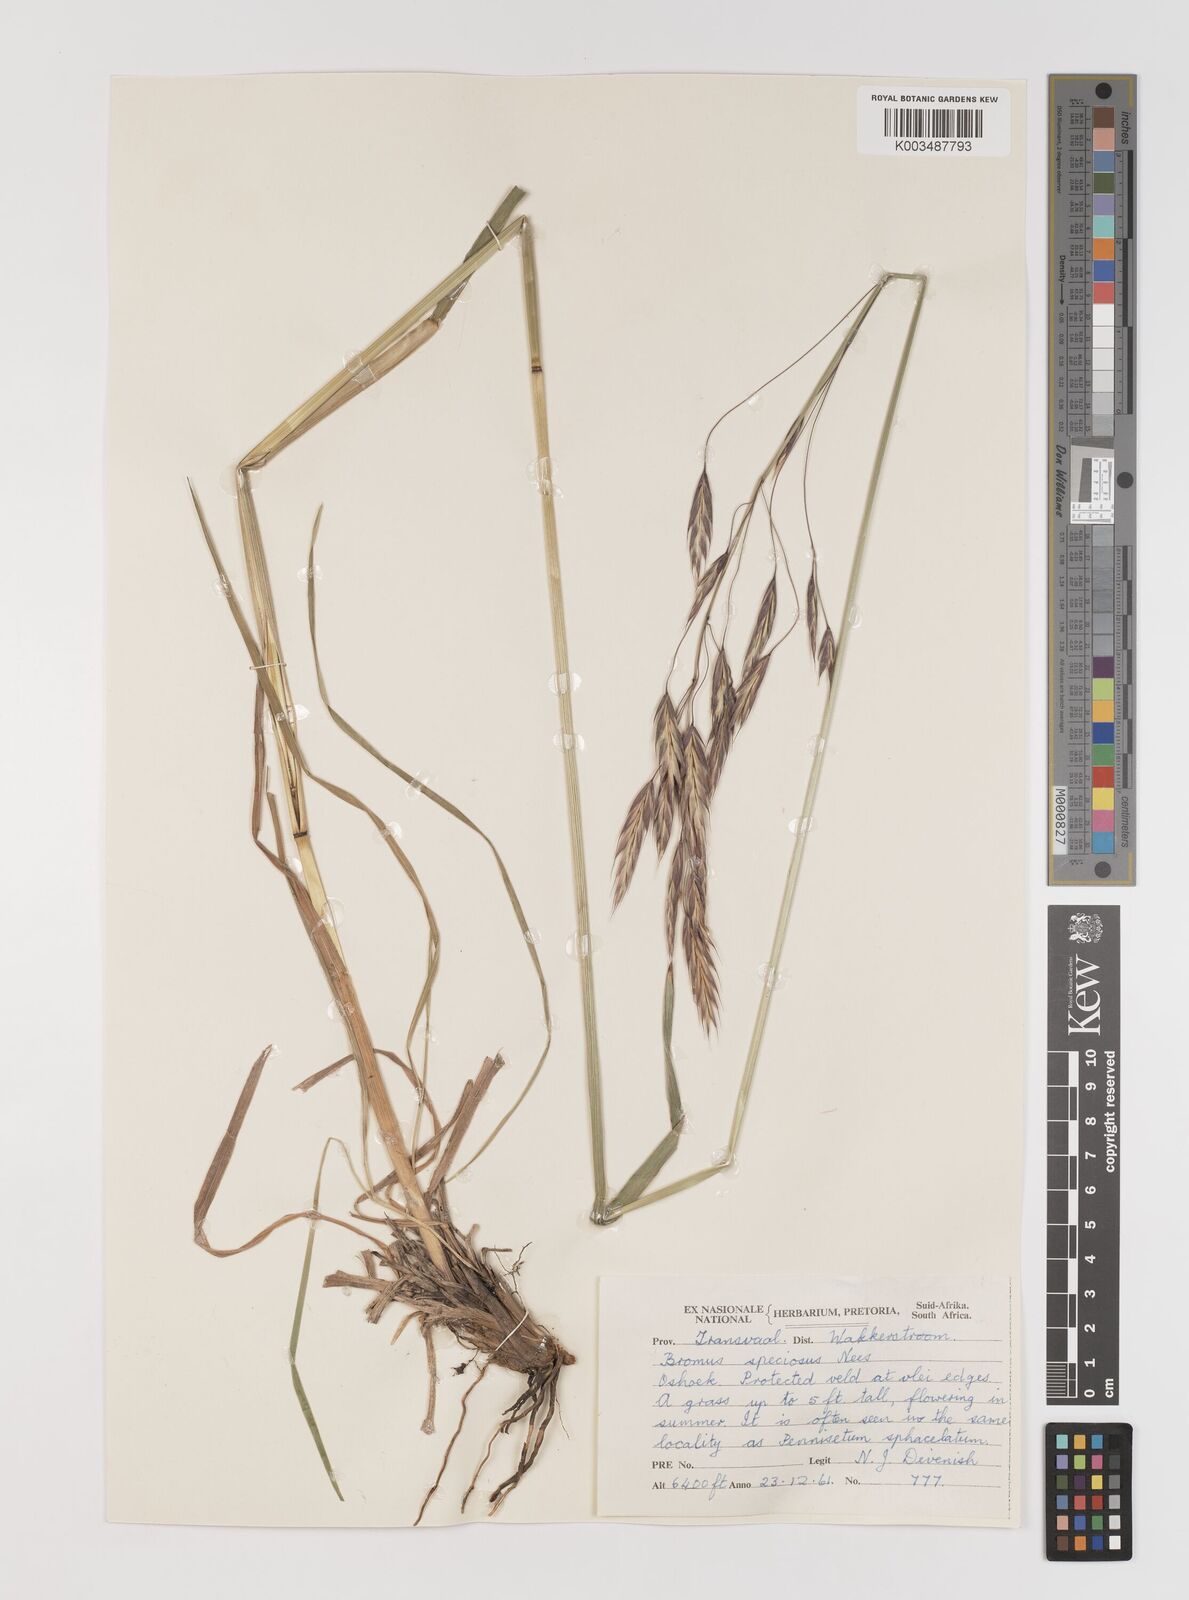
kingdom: Plantae
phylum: Tracheophyta
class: Liliopsida
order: Poales
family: Poaceae
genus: Bromus
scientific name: Bromus speciosus
